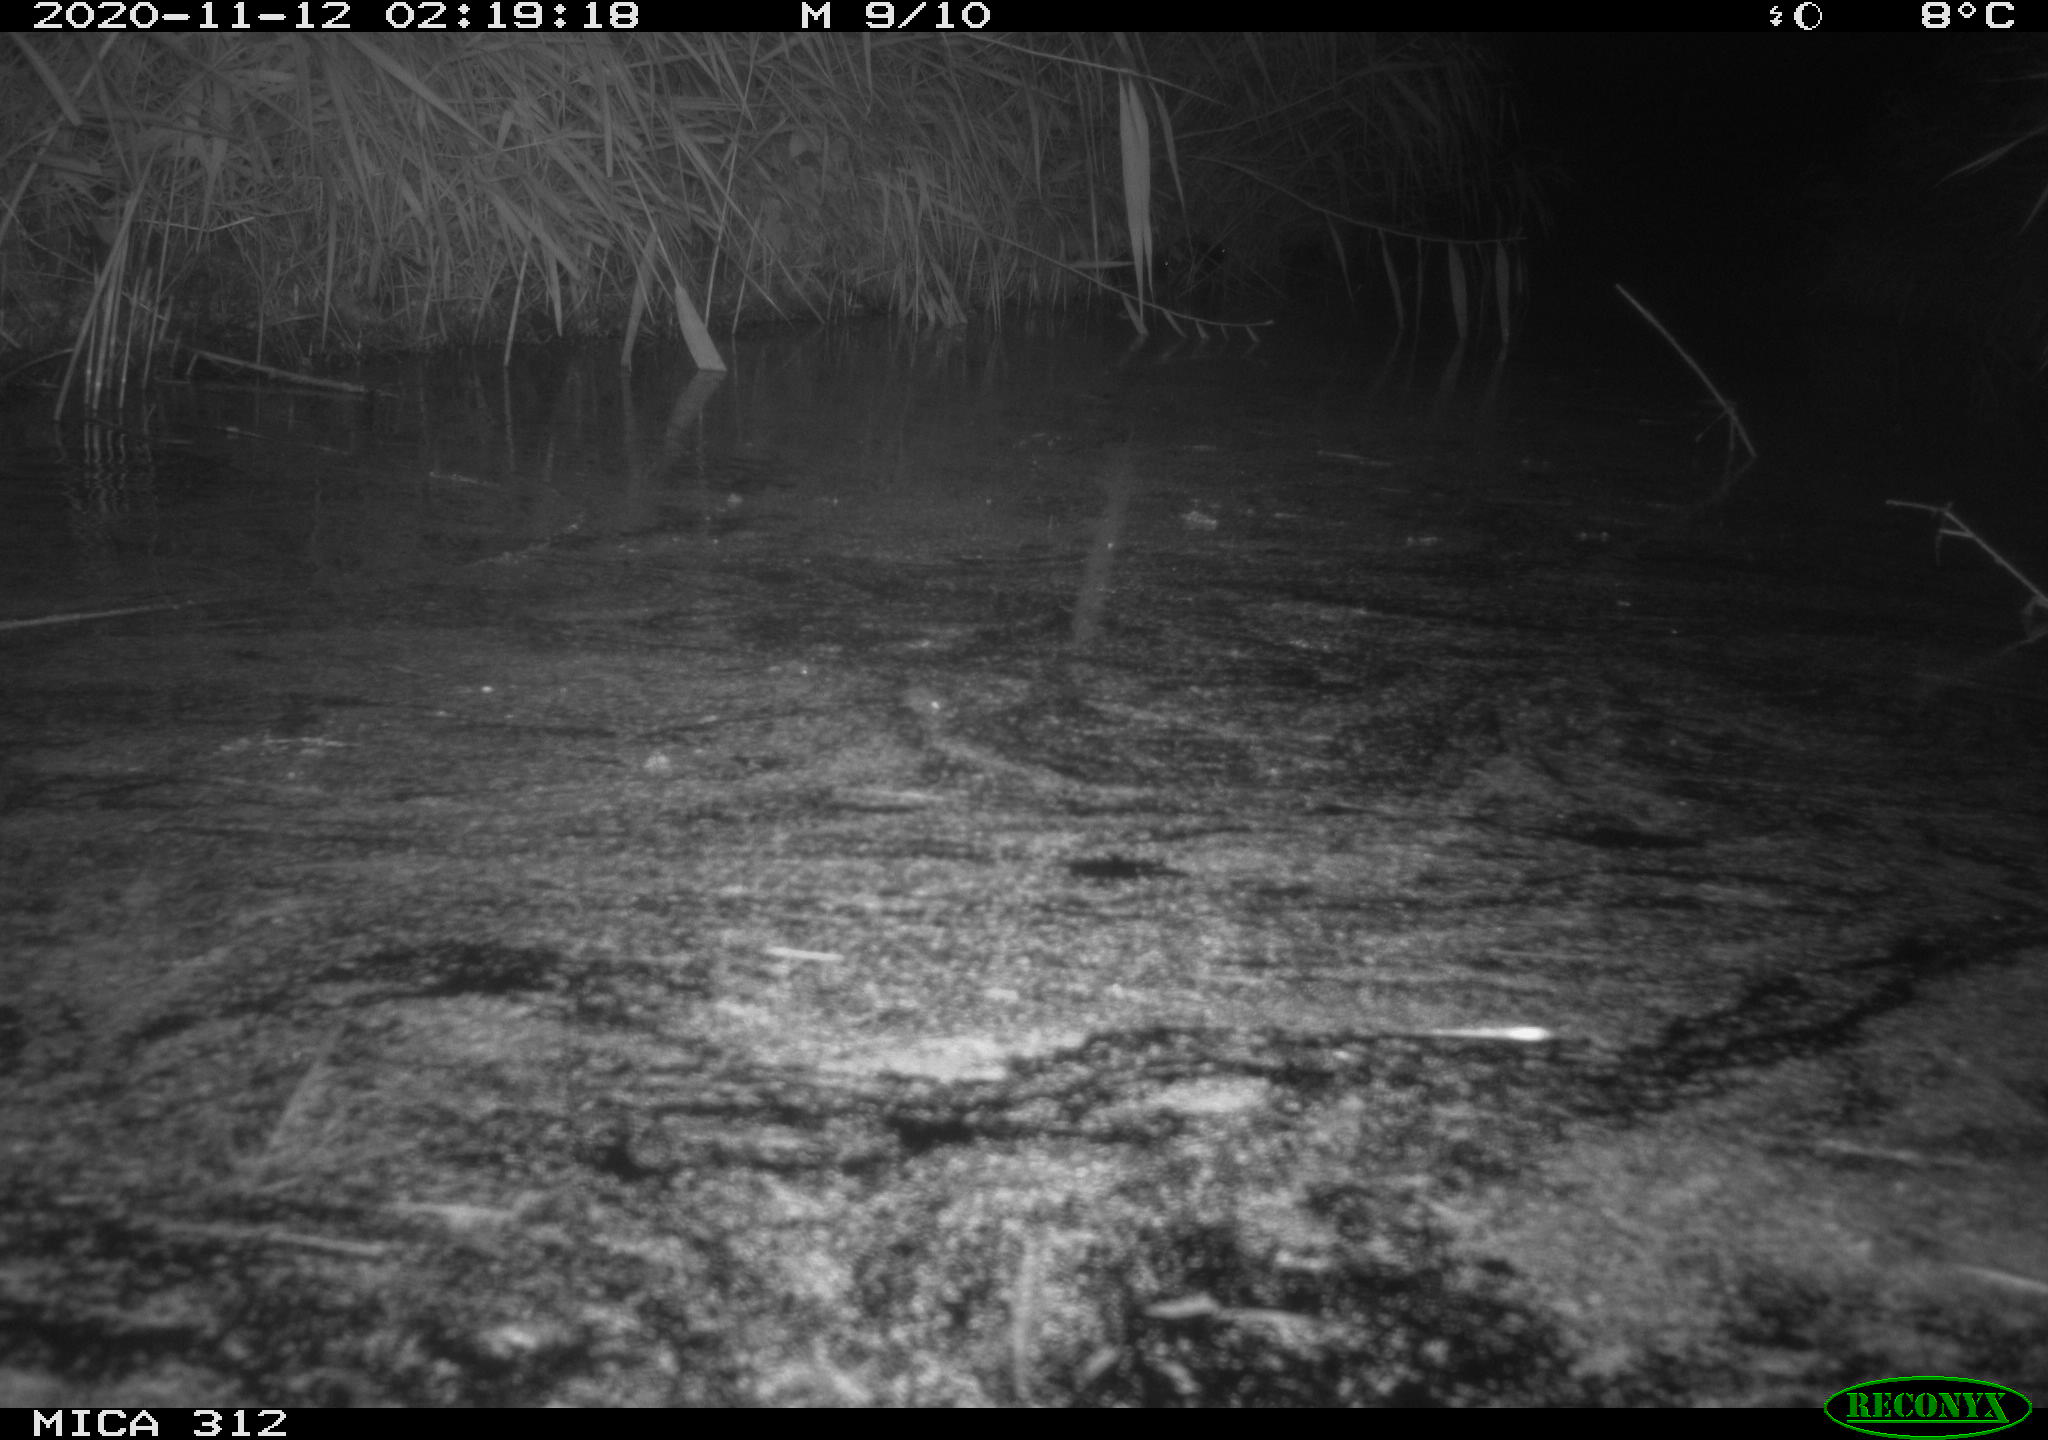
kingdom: Animalia
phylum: Chordata
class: Mammalia
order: Rodentia
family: Muridae
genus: Rattus
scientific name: Rattus norvegicus
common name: Brown rat
